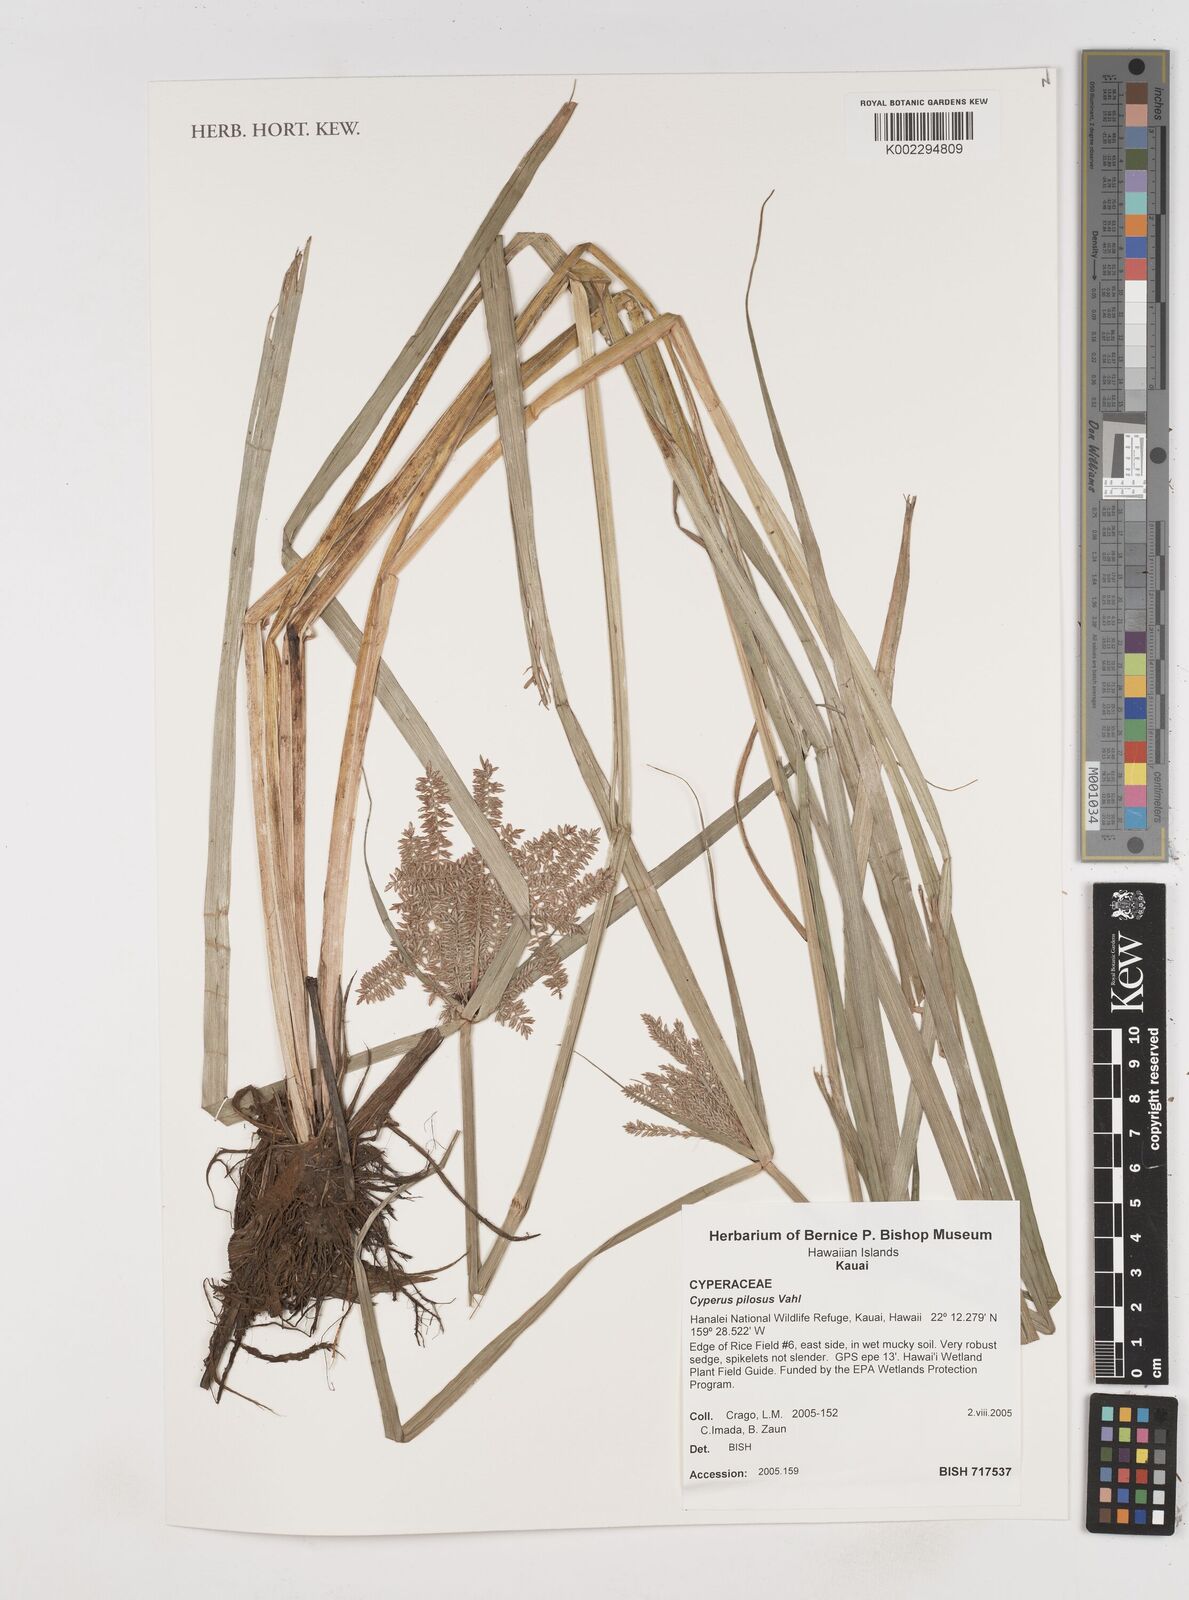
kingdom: Plantae
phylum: Tracheophyta
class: Liliopsida
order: Poales
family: Cyperaceae
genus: Cyperus
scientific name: Cyperus pilosus
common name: Fuzzy flatsedge
